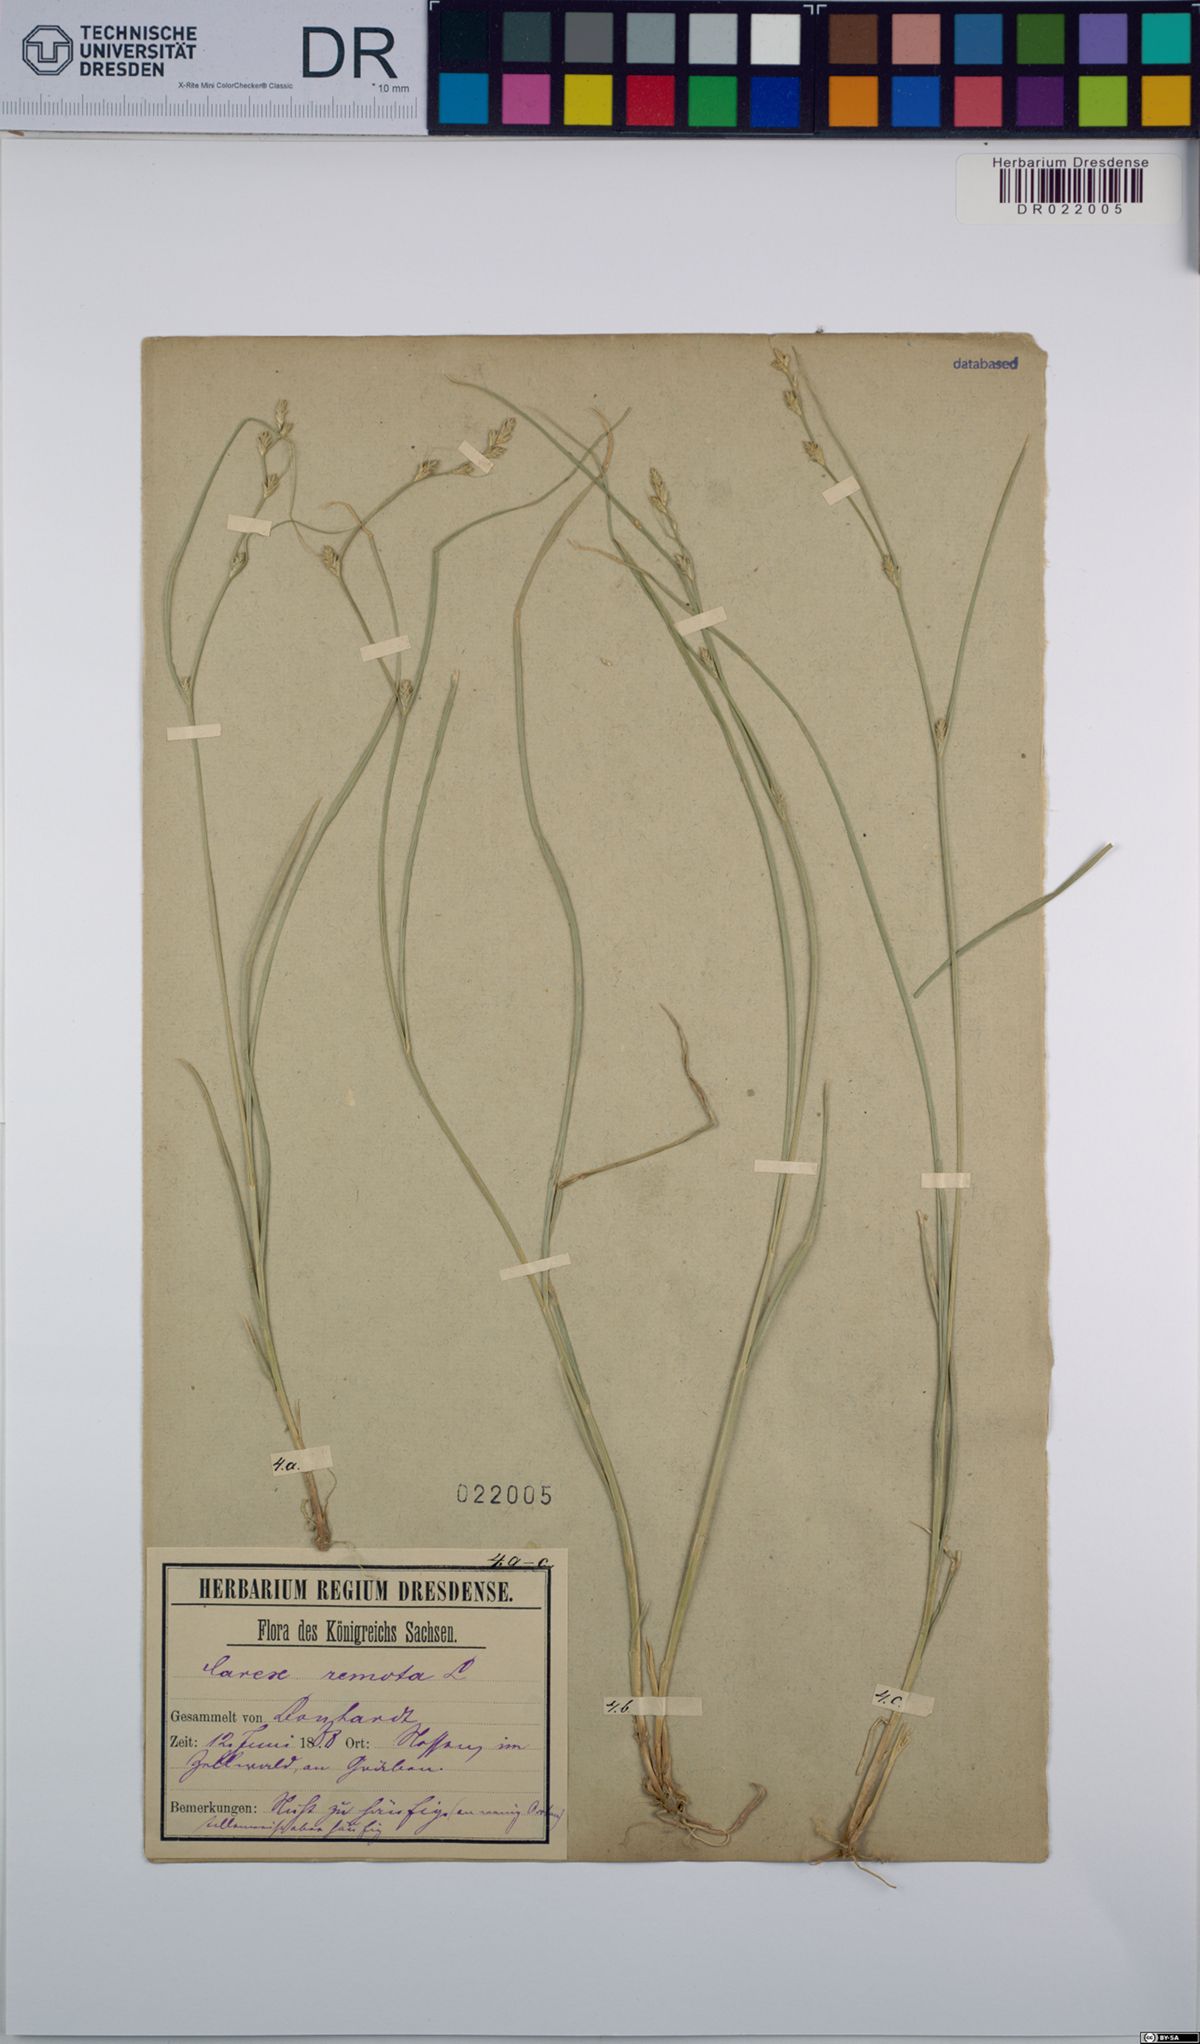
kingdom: Plantae
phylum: Tracheophyta
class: Liliopsida
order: Poales
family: Cyperaceae
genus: Carex
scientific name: Carex remota
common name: Remote sedge
